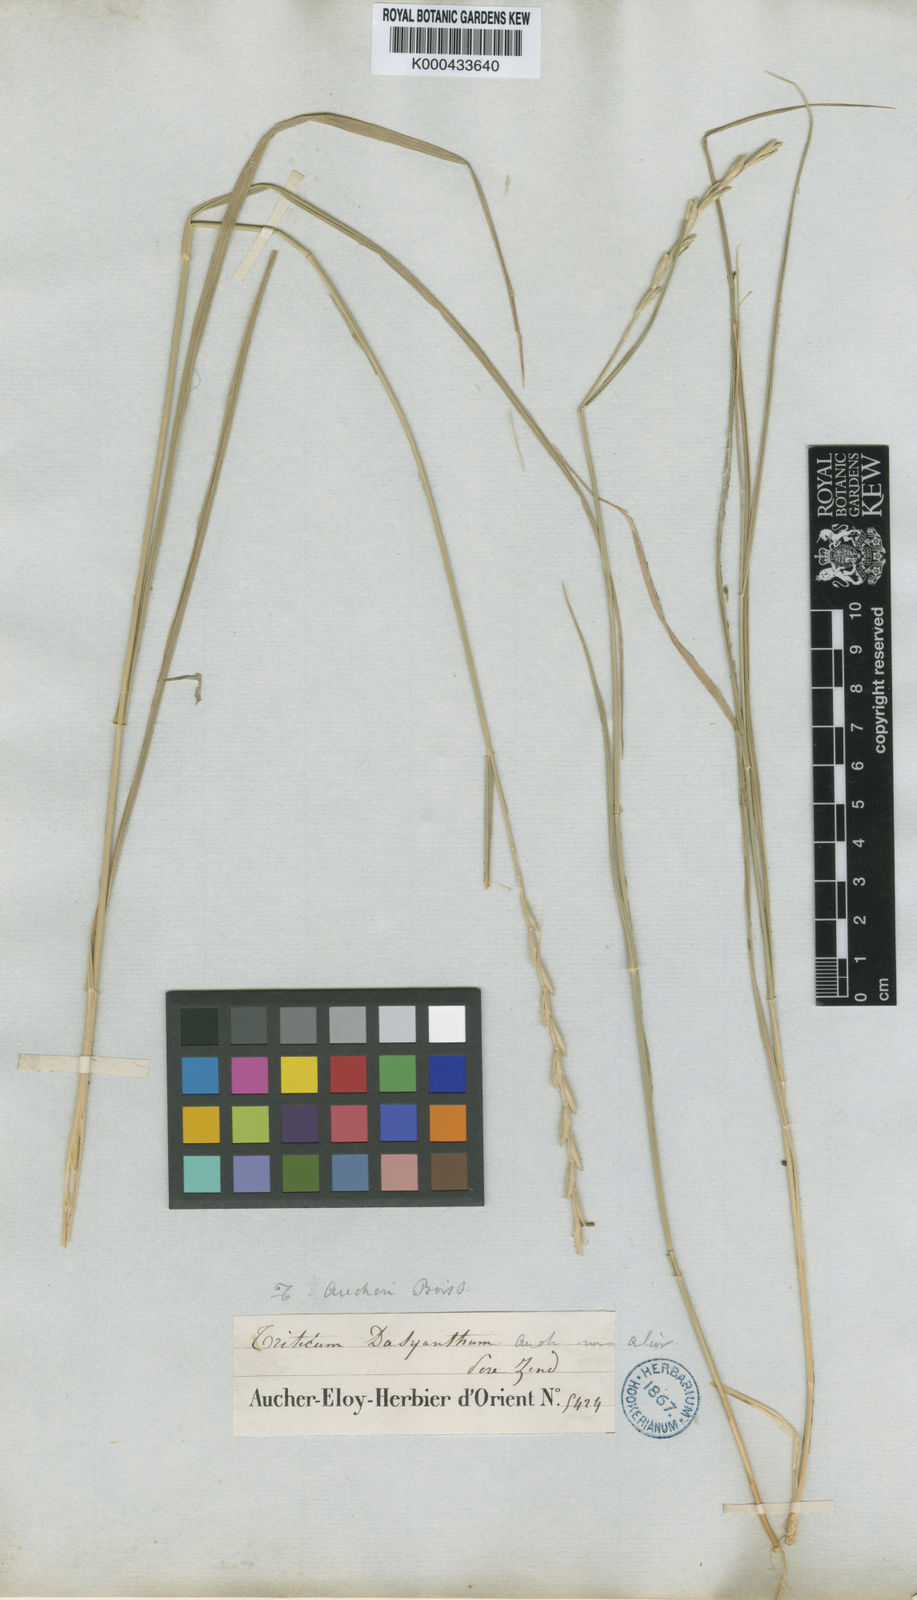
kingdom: Plantae
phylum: Tracheophyta
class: Liliopsida
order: Poales
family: Poaceae
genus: Thinopyrum
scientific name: Thinopyrum intermedium
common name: Intermediate wheatgrass
